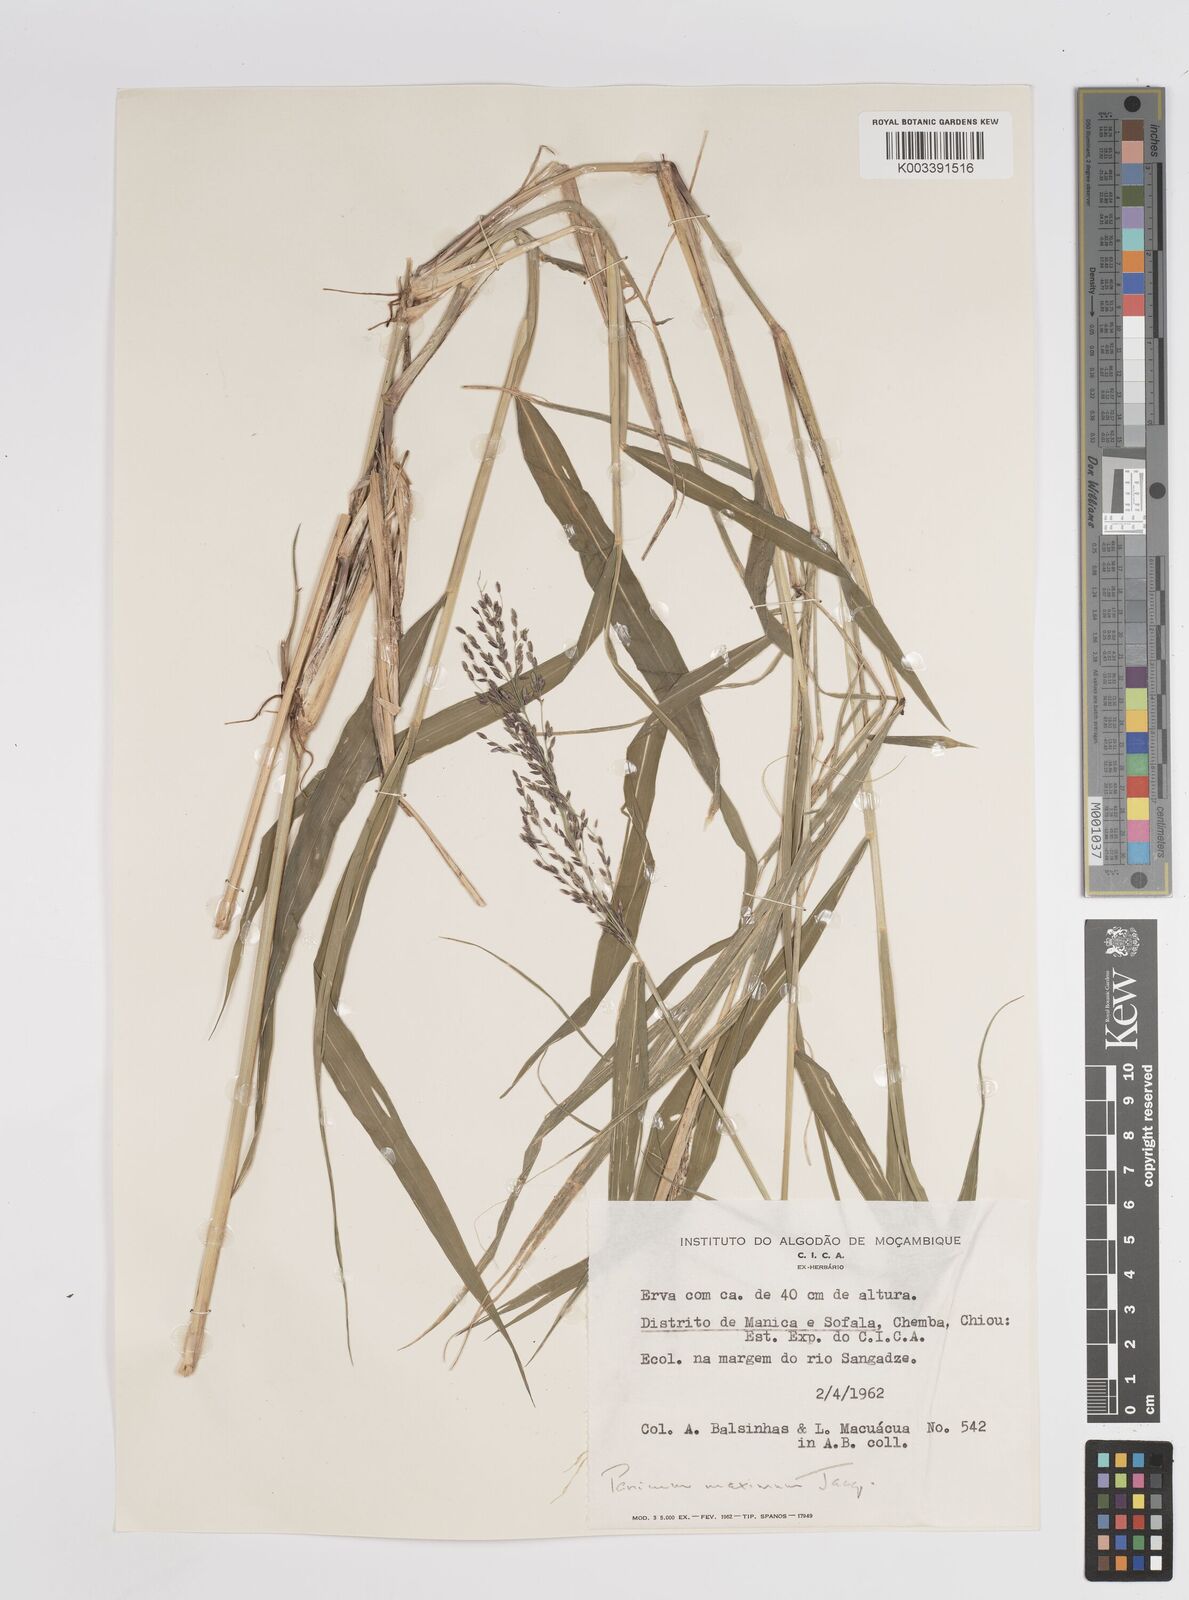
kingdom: Plantae
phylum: Tracheophyta
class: Liliopsida
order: Poales
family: Poaceae
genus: Megathyrsus
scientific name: Megathyrsus maximus
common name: Guineagrass
